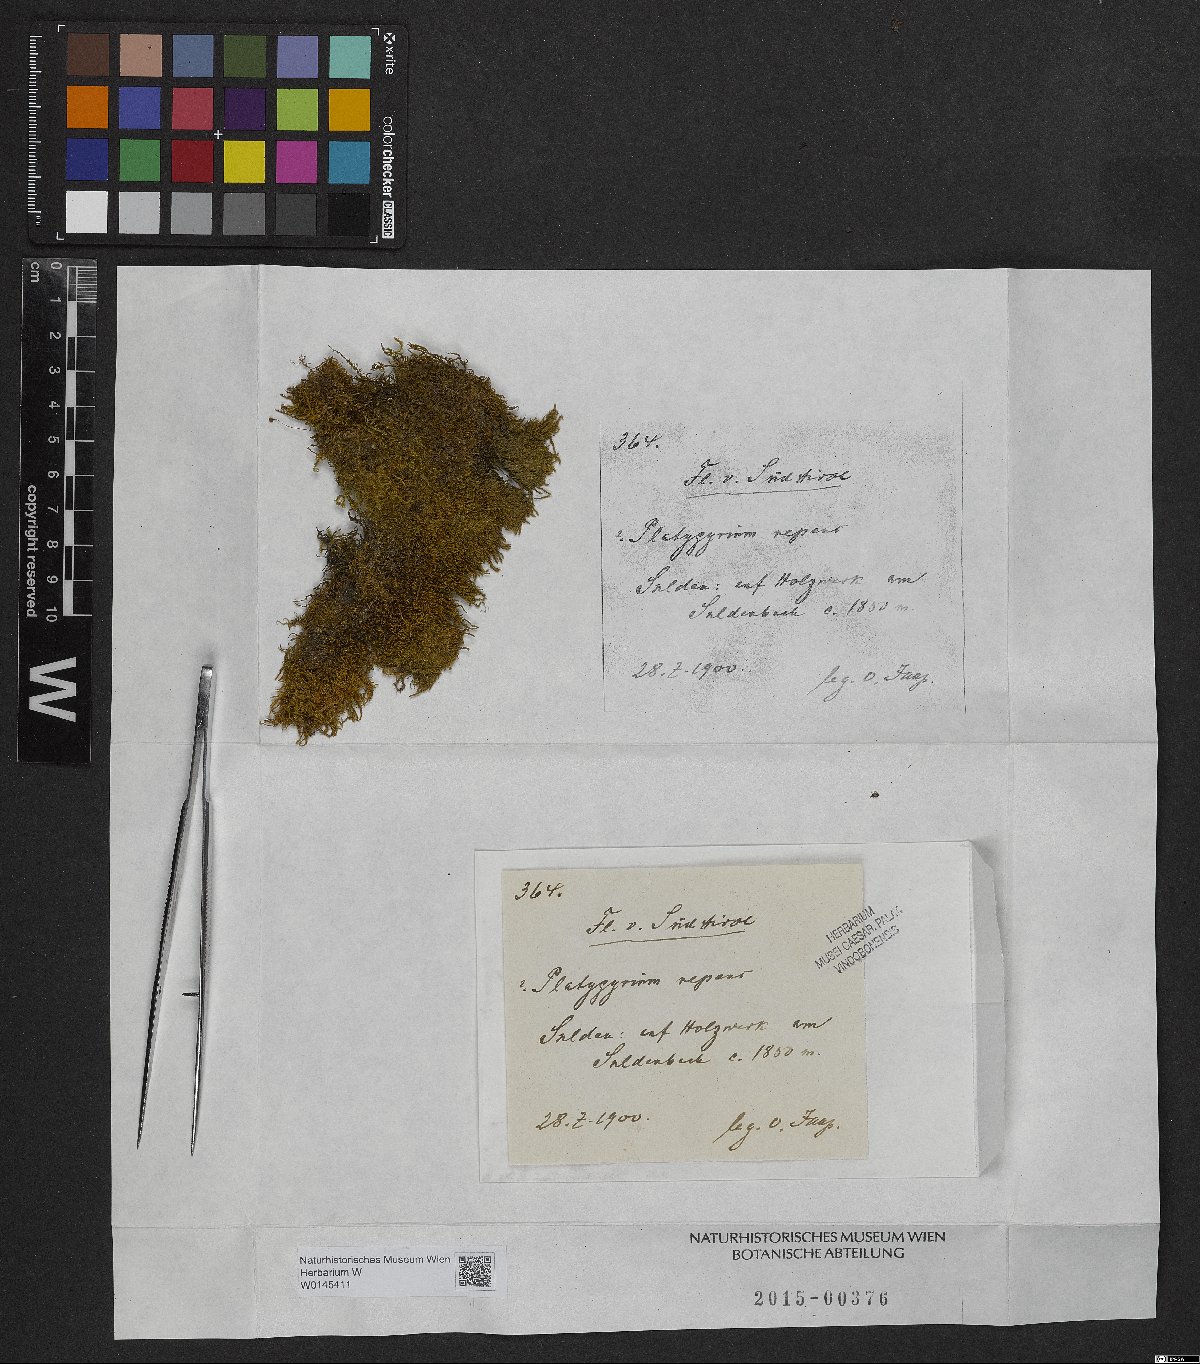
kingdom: Plantae
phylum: Bryophyta
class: Bryopsida
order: Hypnales
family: Pylaisiadelphaceae
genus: Platygyrium
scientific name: Platygyrium repens
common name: Flat-brocade moss
